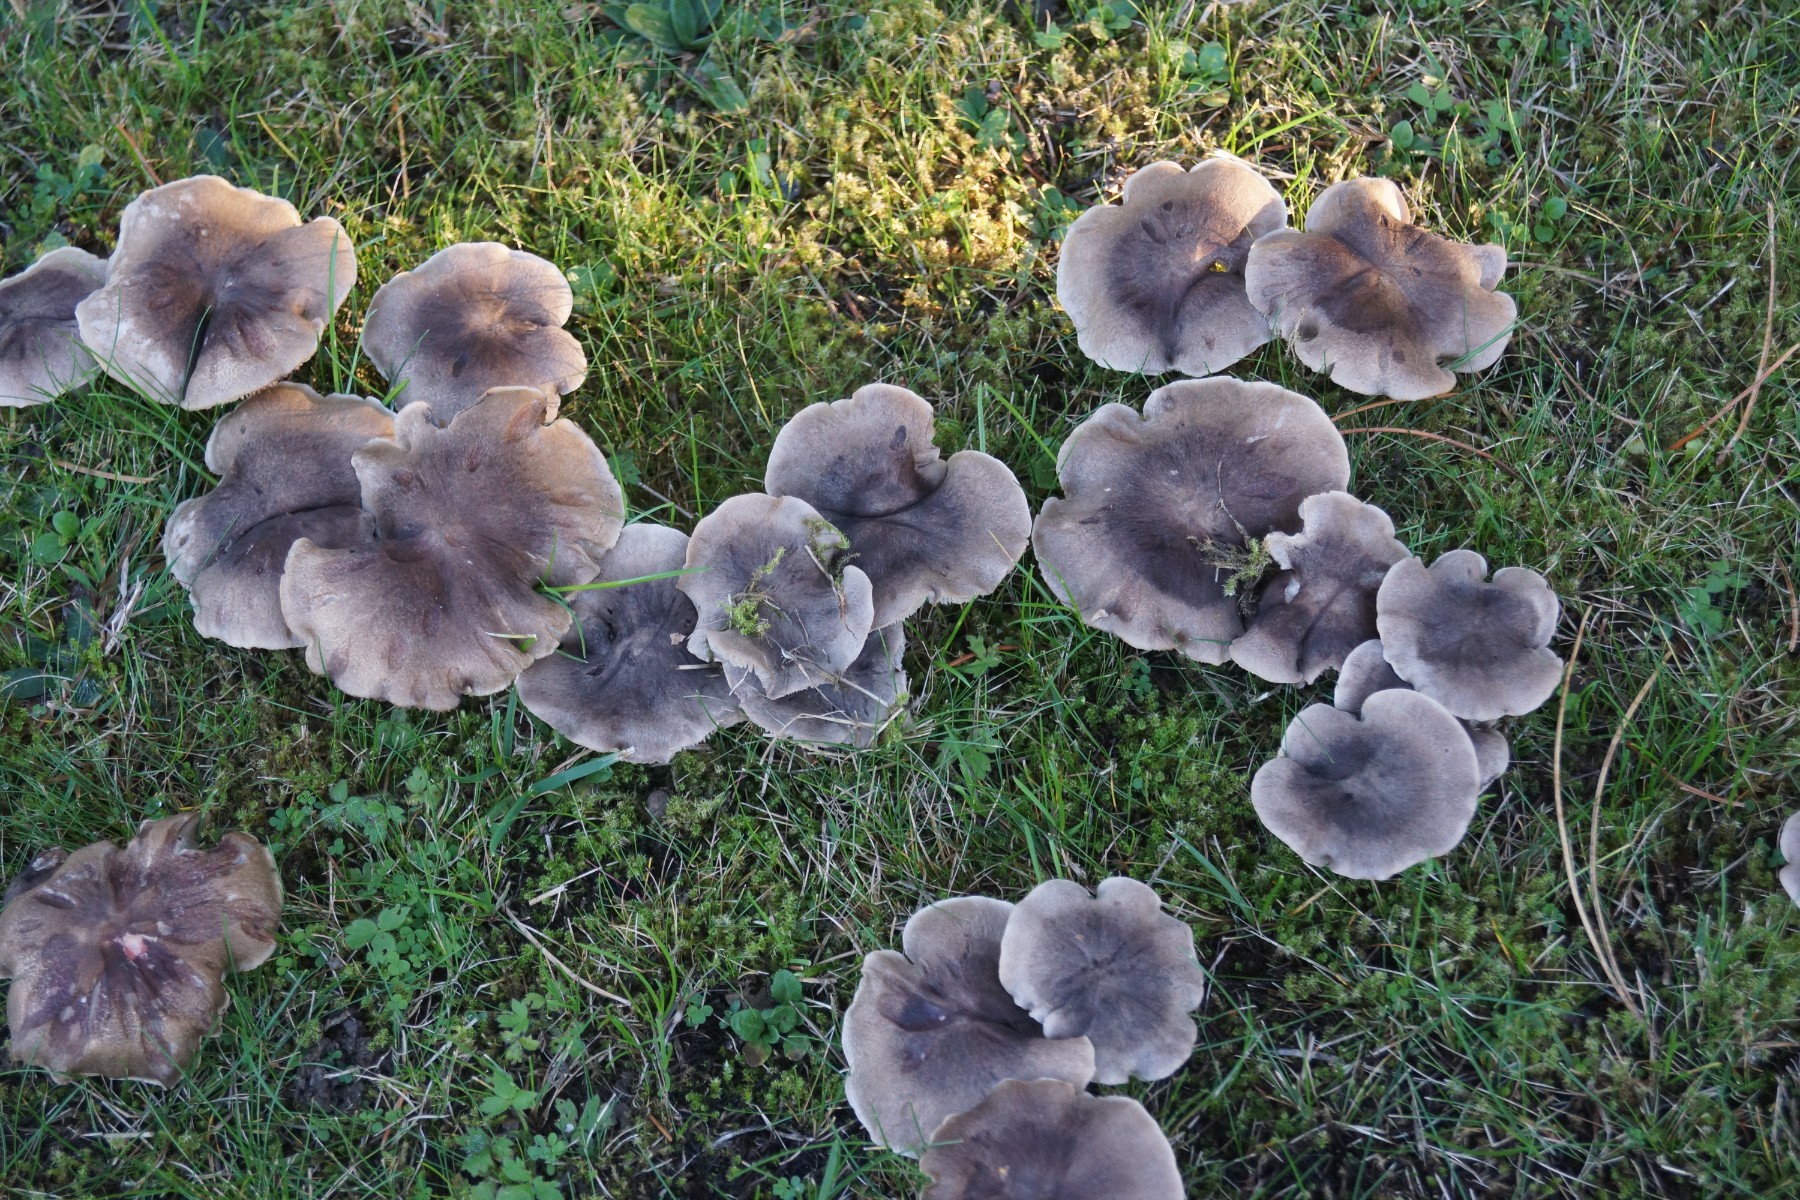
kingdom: Fungi
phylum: Basidiomycota
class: Agaricomycetes
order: Agaricales
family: Tricholomataceae
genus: Tricholoma
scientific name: Tricholoma terreum
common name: jordfarvet ridderhat
